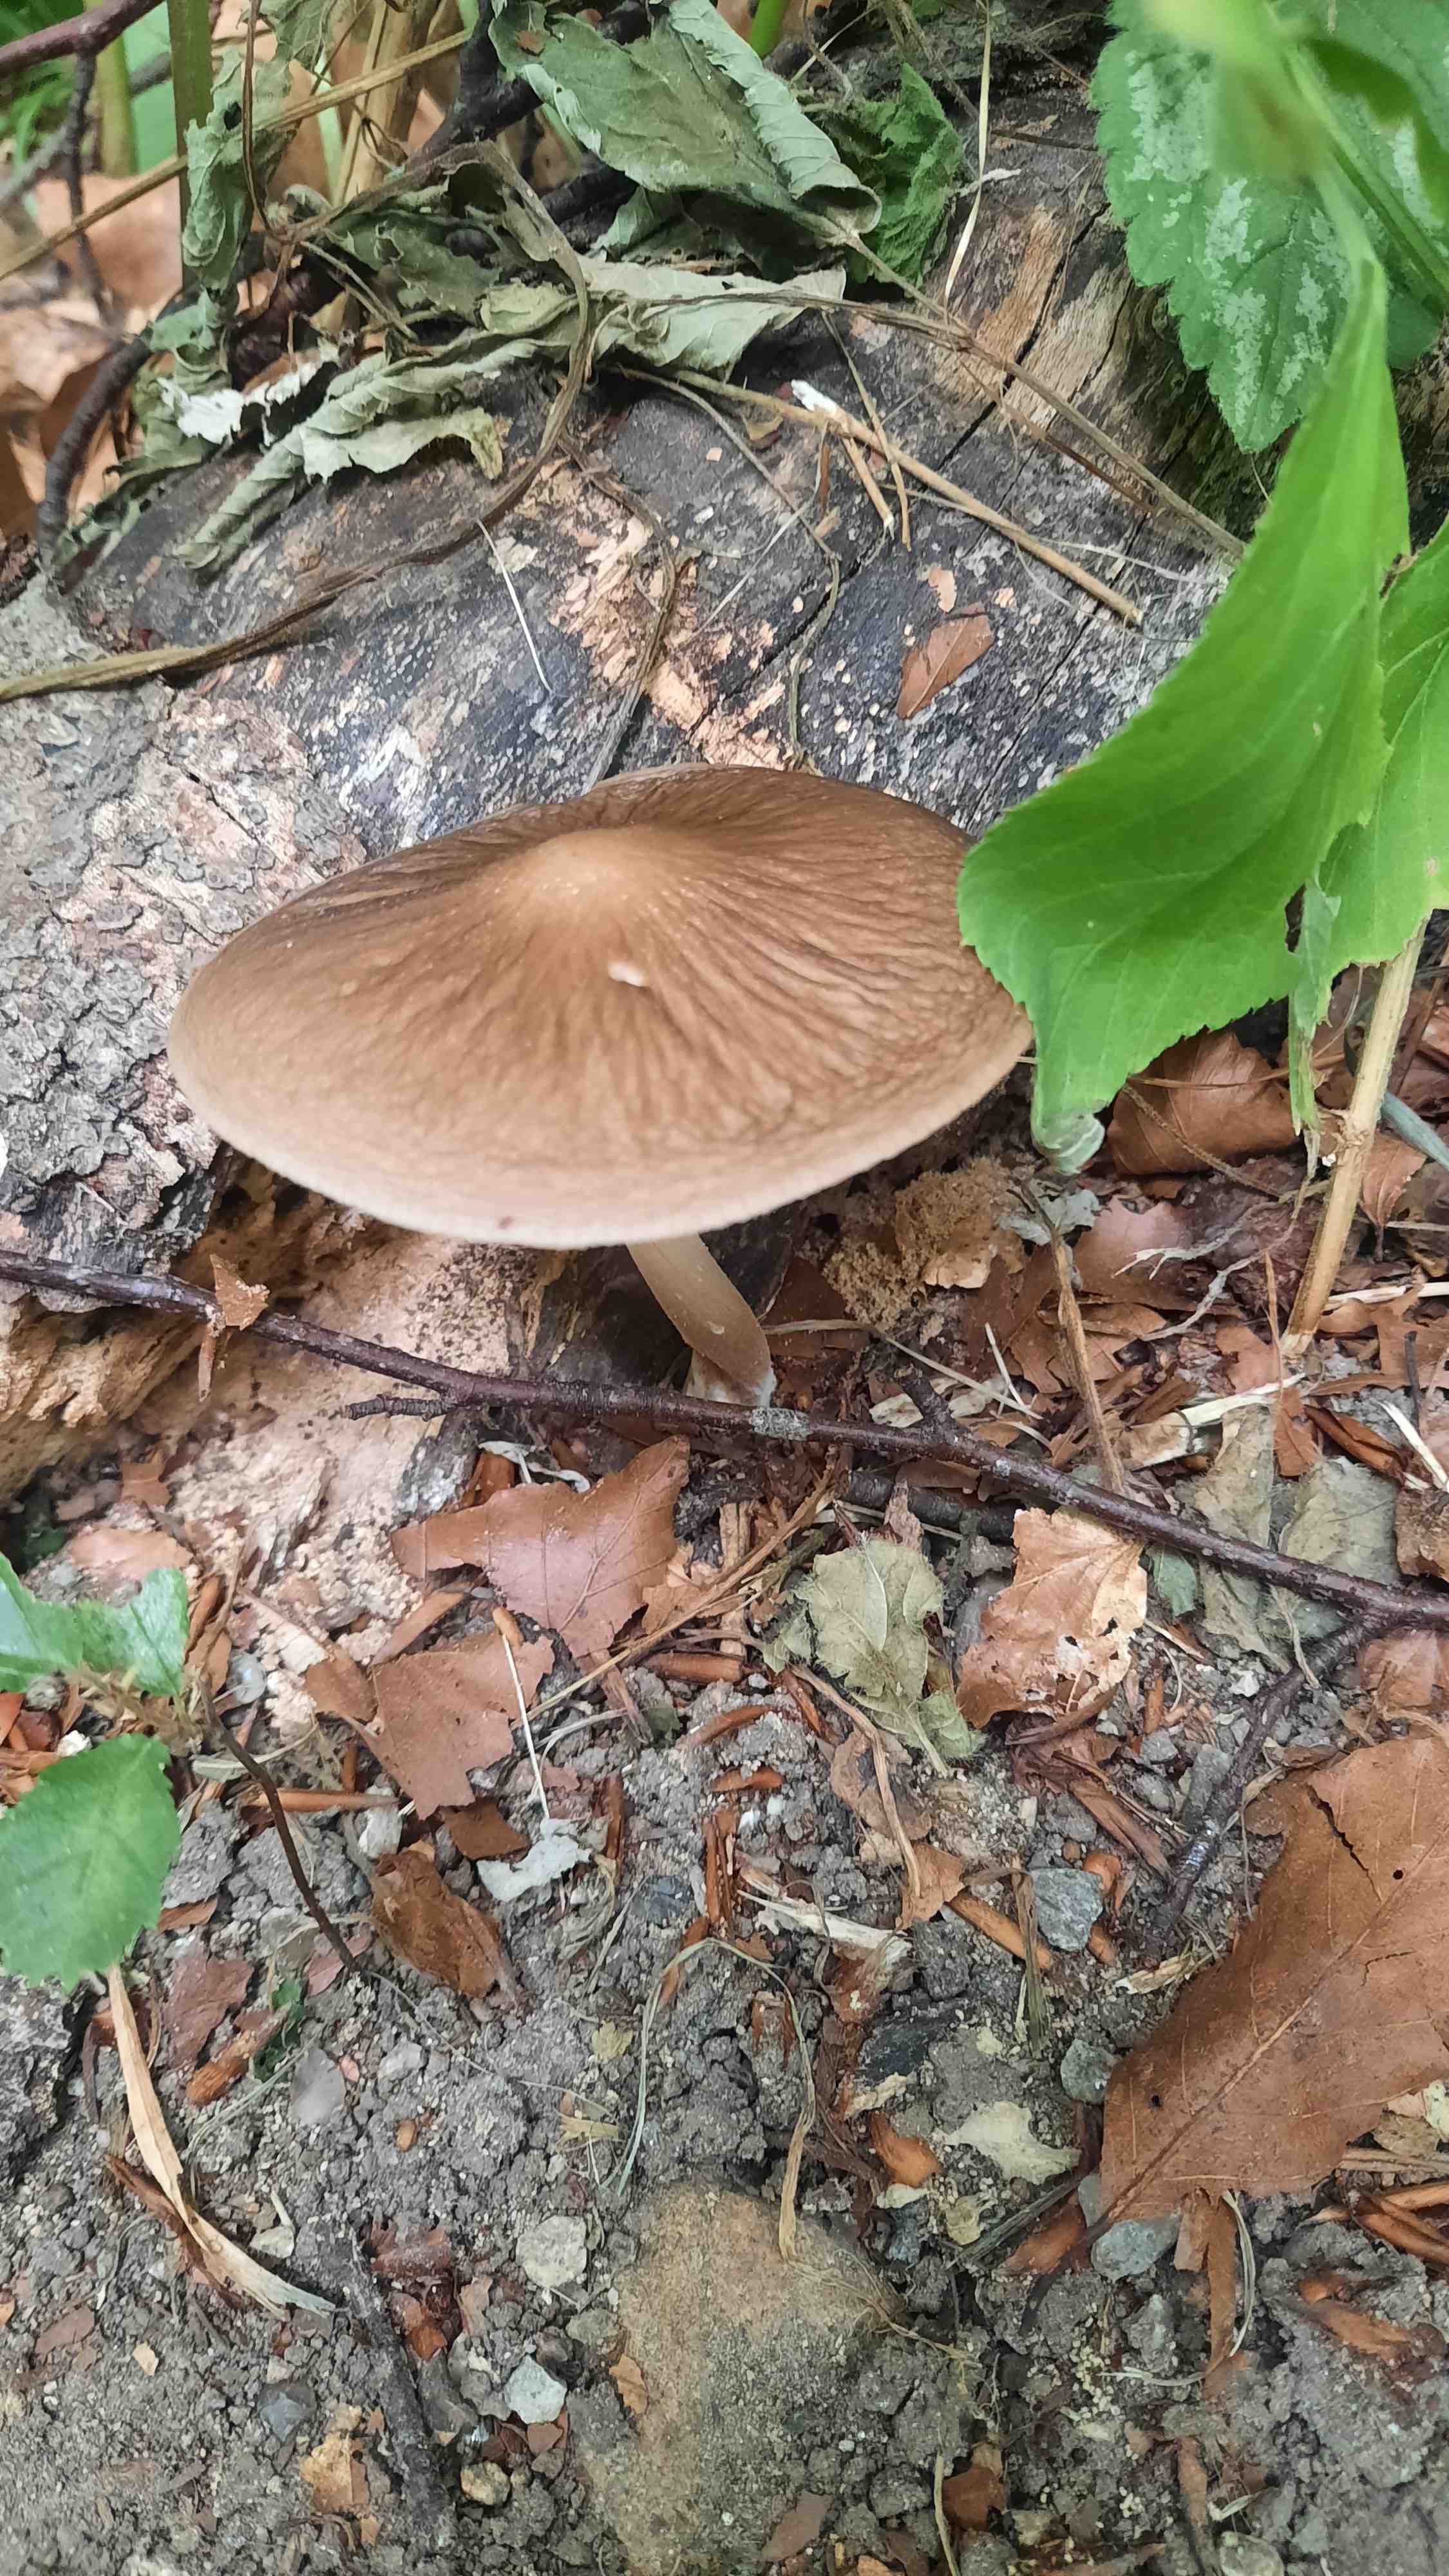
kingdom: Fungi
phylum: Basidiomycota
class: Agaricomycetes
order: Agaricales
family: Physalacriaceae
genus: Hymenopellis
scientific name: Hymenopellis radicata
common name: almindelig pælerodshat
